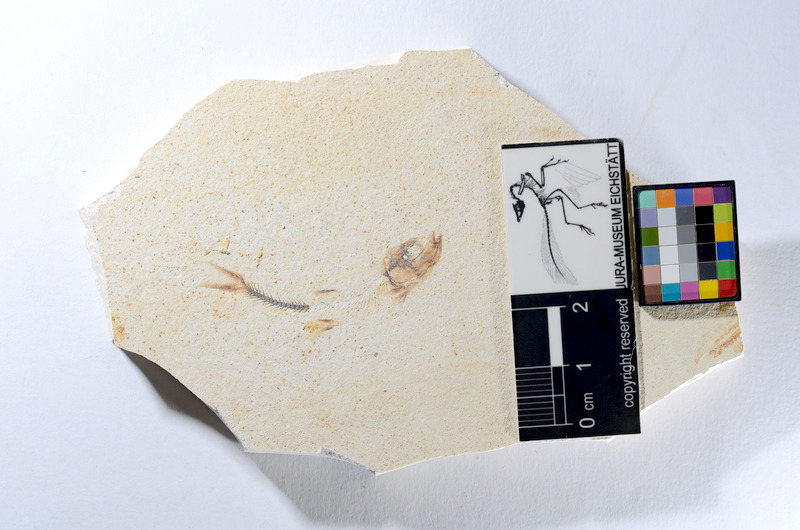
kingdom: Animalia
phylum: Chordata
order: Salmoniformes
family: Orthogonikleithridae
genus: Orthogonikleithrus
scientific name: Orthogonikleithrus hoelli
